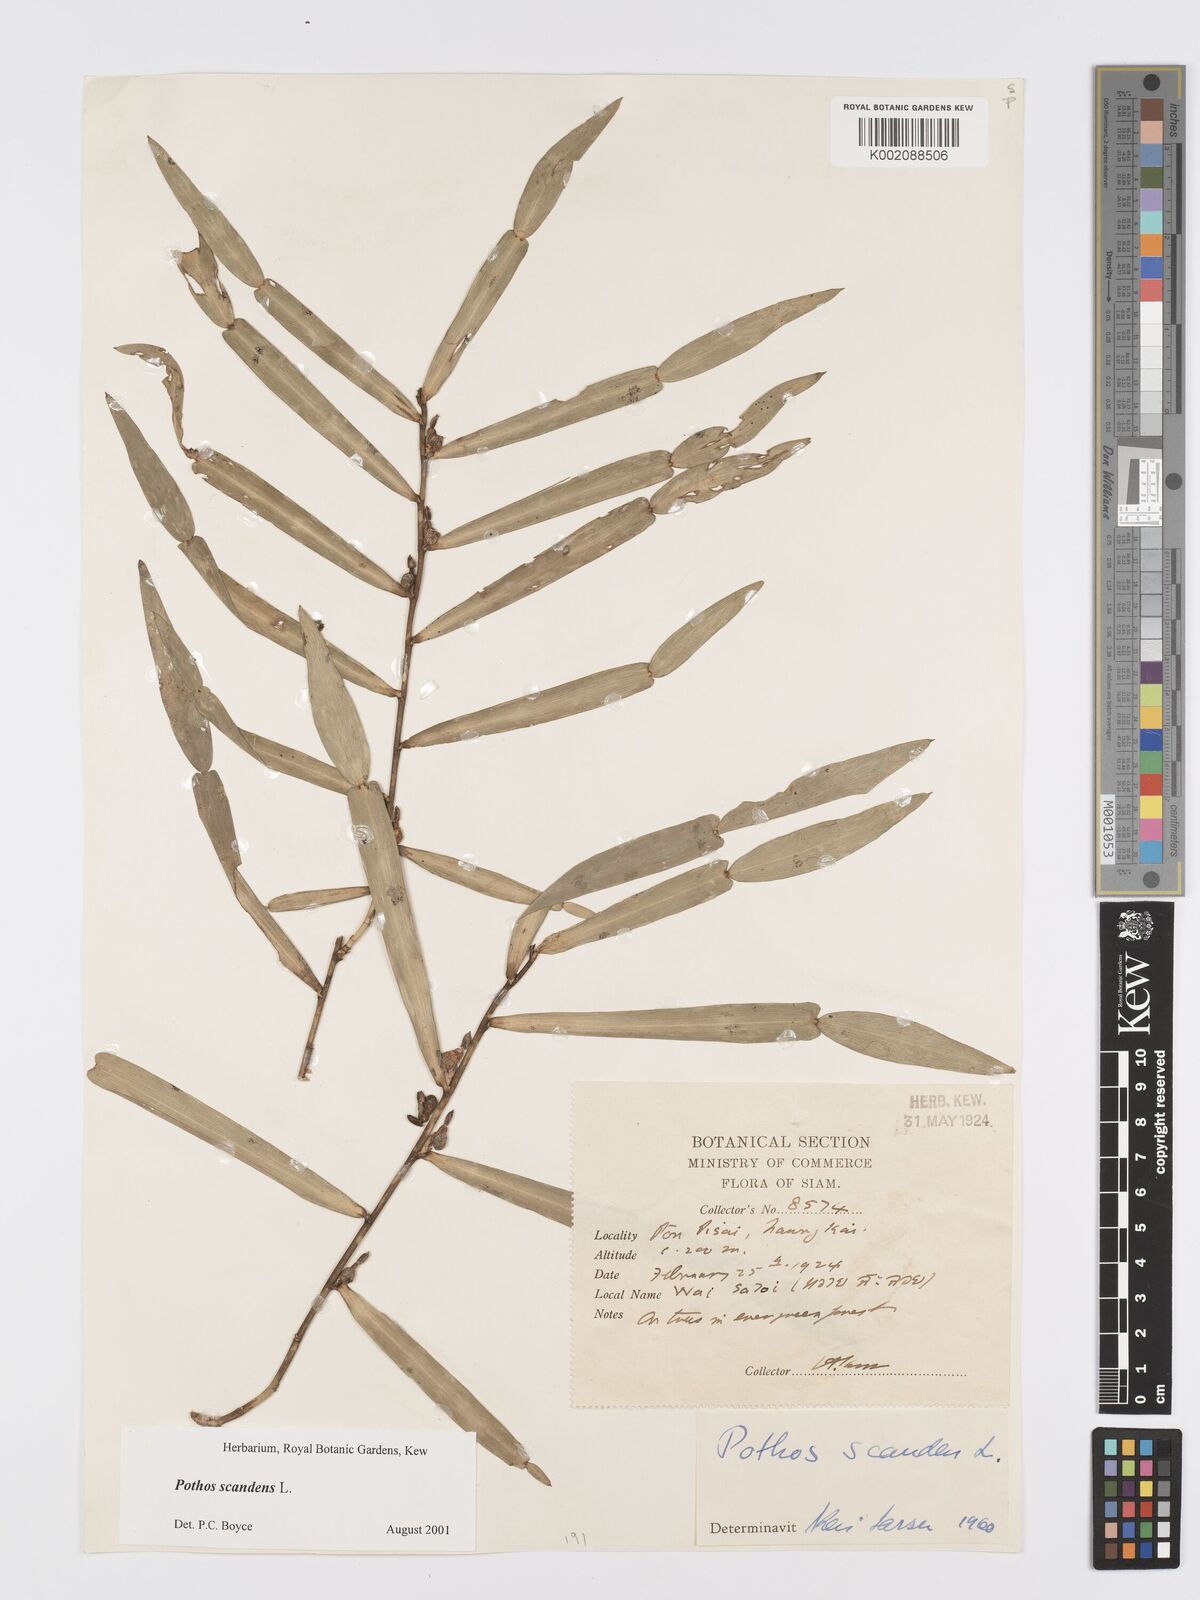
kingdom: Plantae
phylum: Tracheophyta
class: Liliopsida
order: Alismatales
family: Araceae
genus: Pothos
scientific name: Pothos scandens
